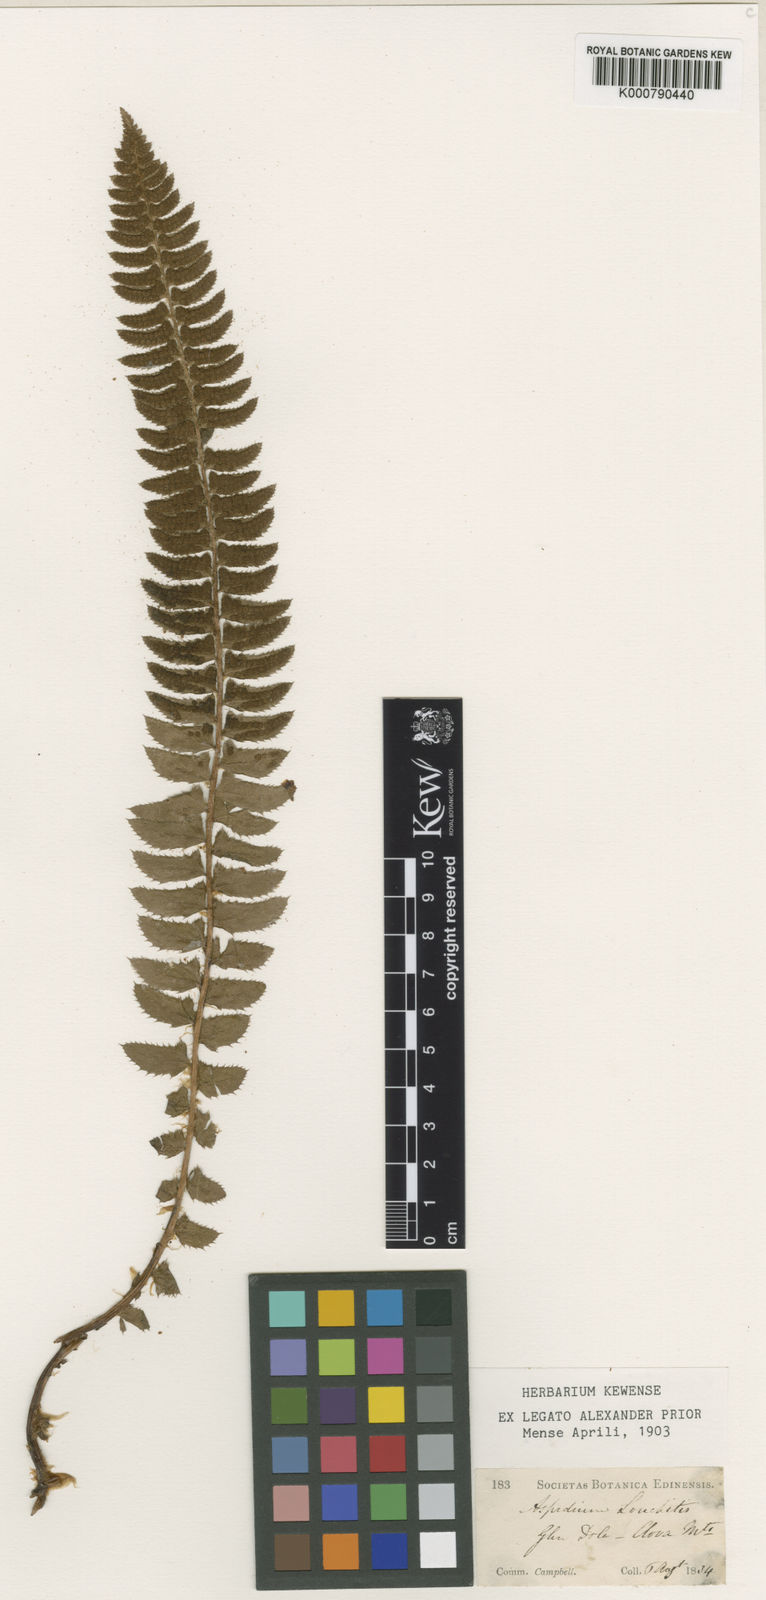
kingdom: Plantae
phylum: Tracheophyta
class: Polypodiopsida
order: Polypodiales
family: Dryopteridaceae
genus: Polystichum
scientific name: Polystichum lonchitis
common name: Holly fern
